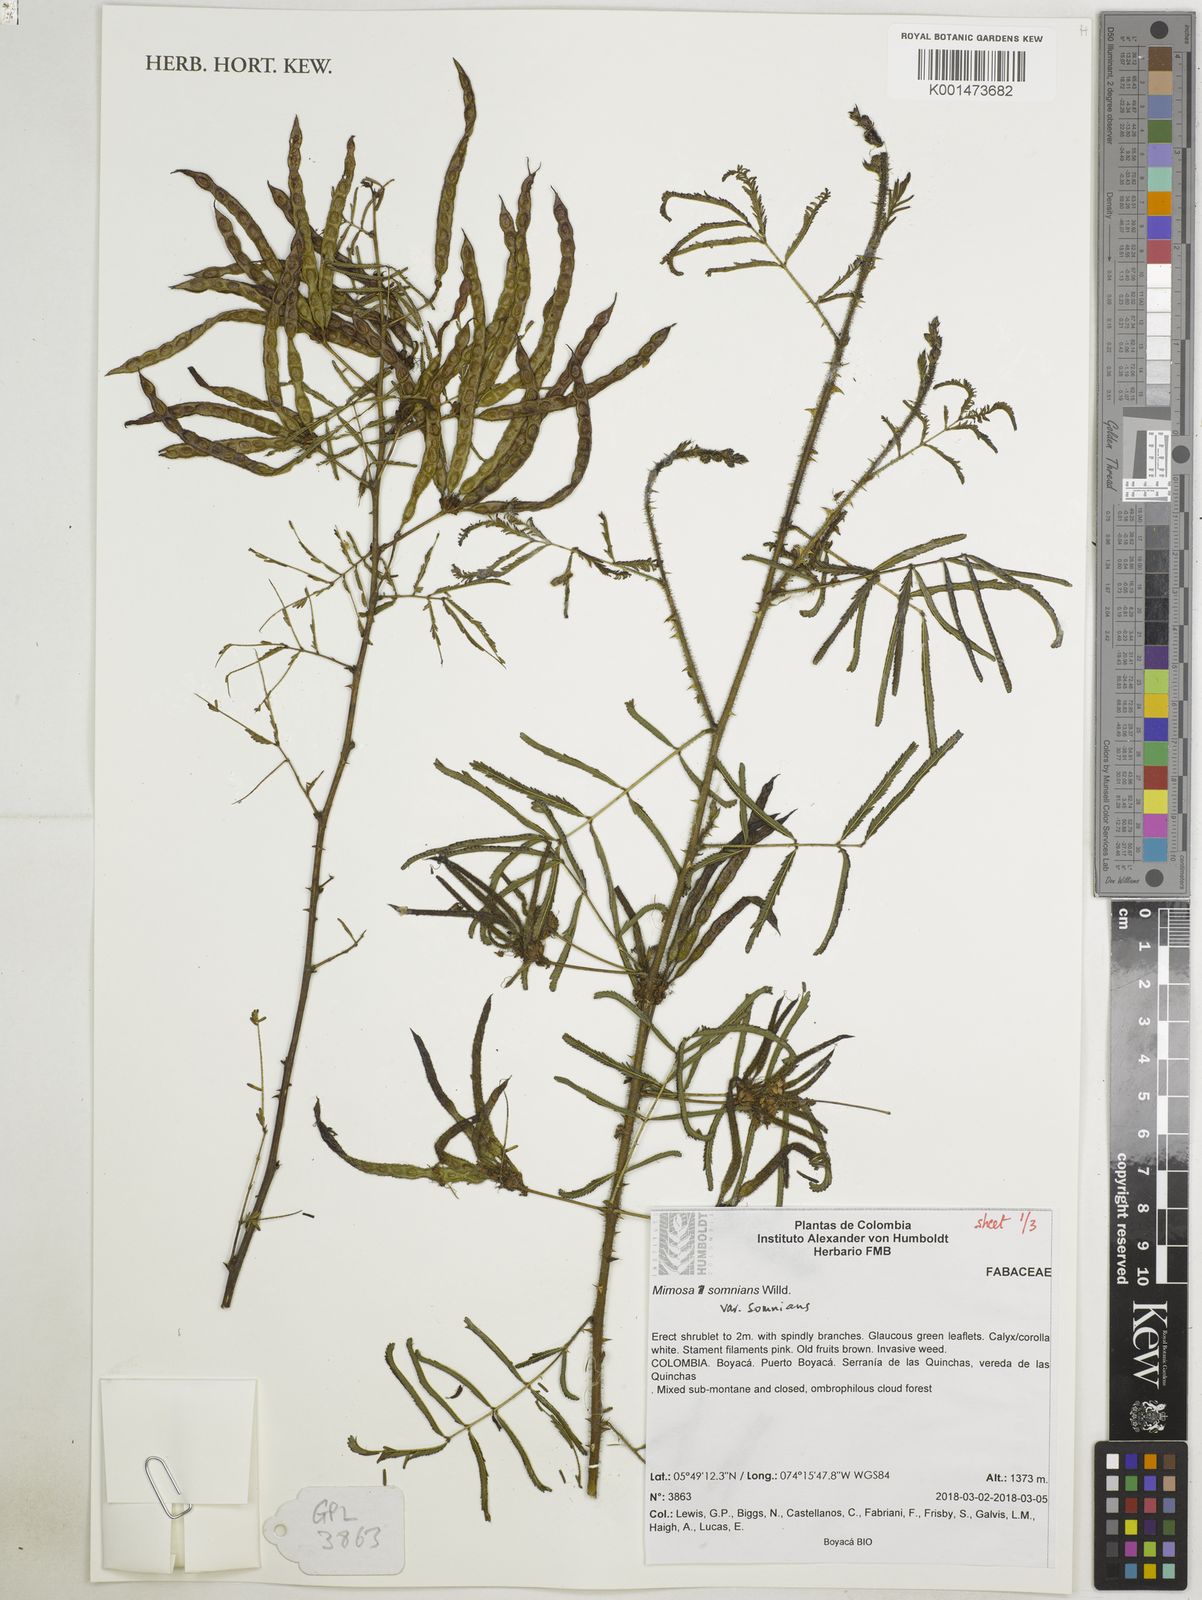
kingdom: Plantae
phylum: Tracheophyta
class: Magnoliopsida
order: Fabales
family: Fabaceae
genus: Mimosa
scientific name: Mimosa somnians
